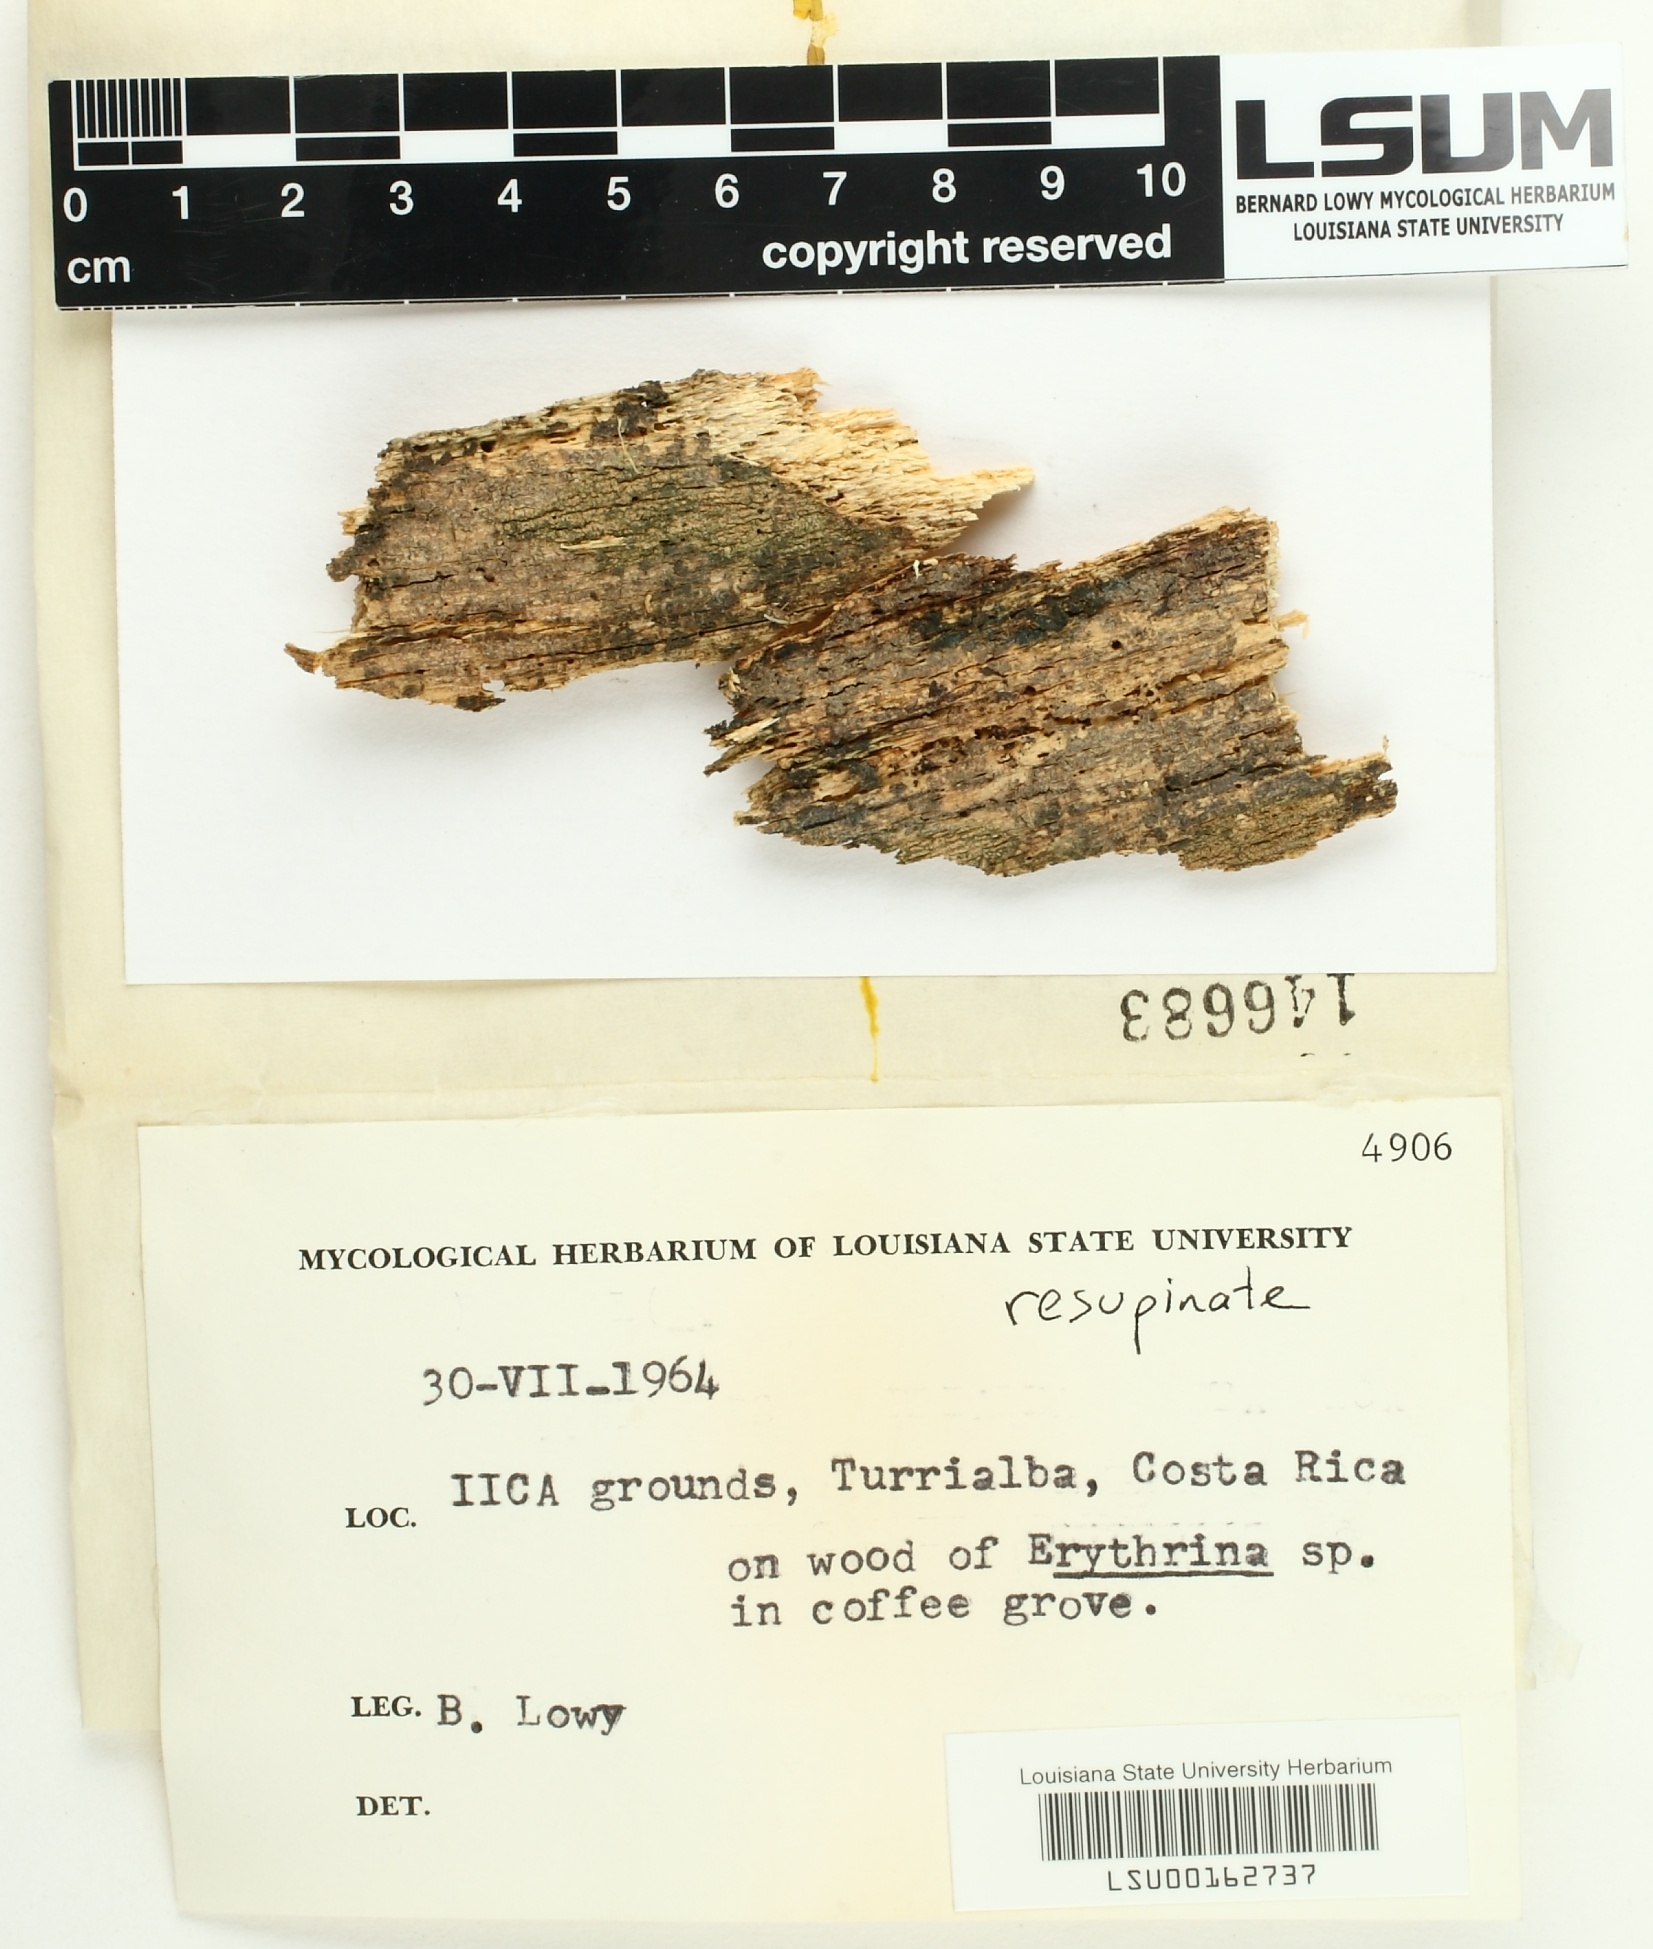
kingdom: Fungi
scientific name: Fungi
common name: Fungi
